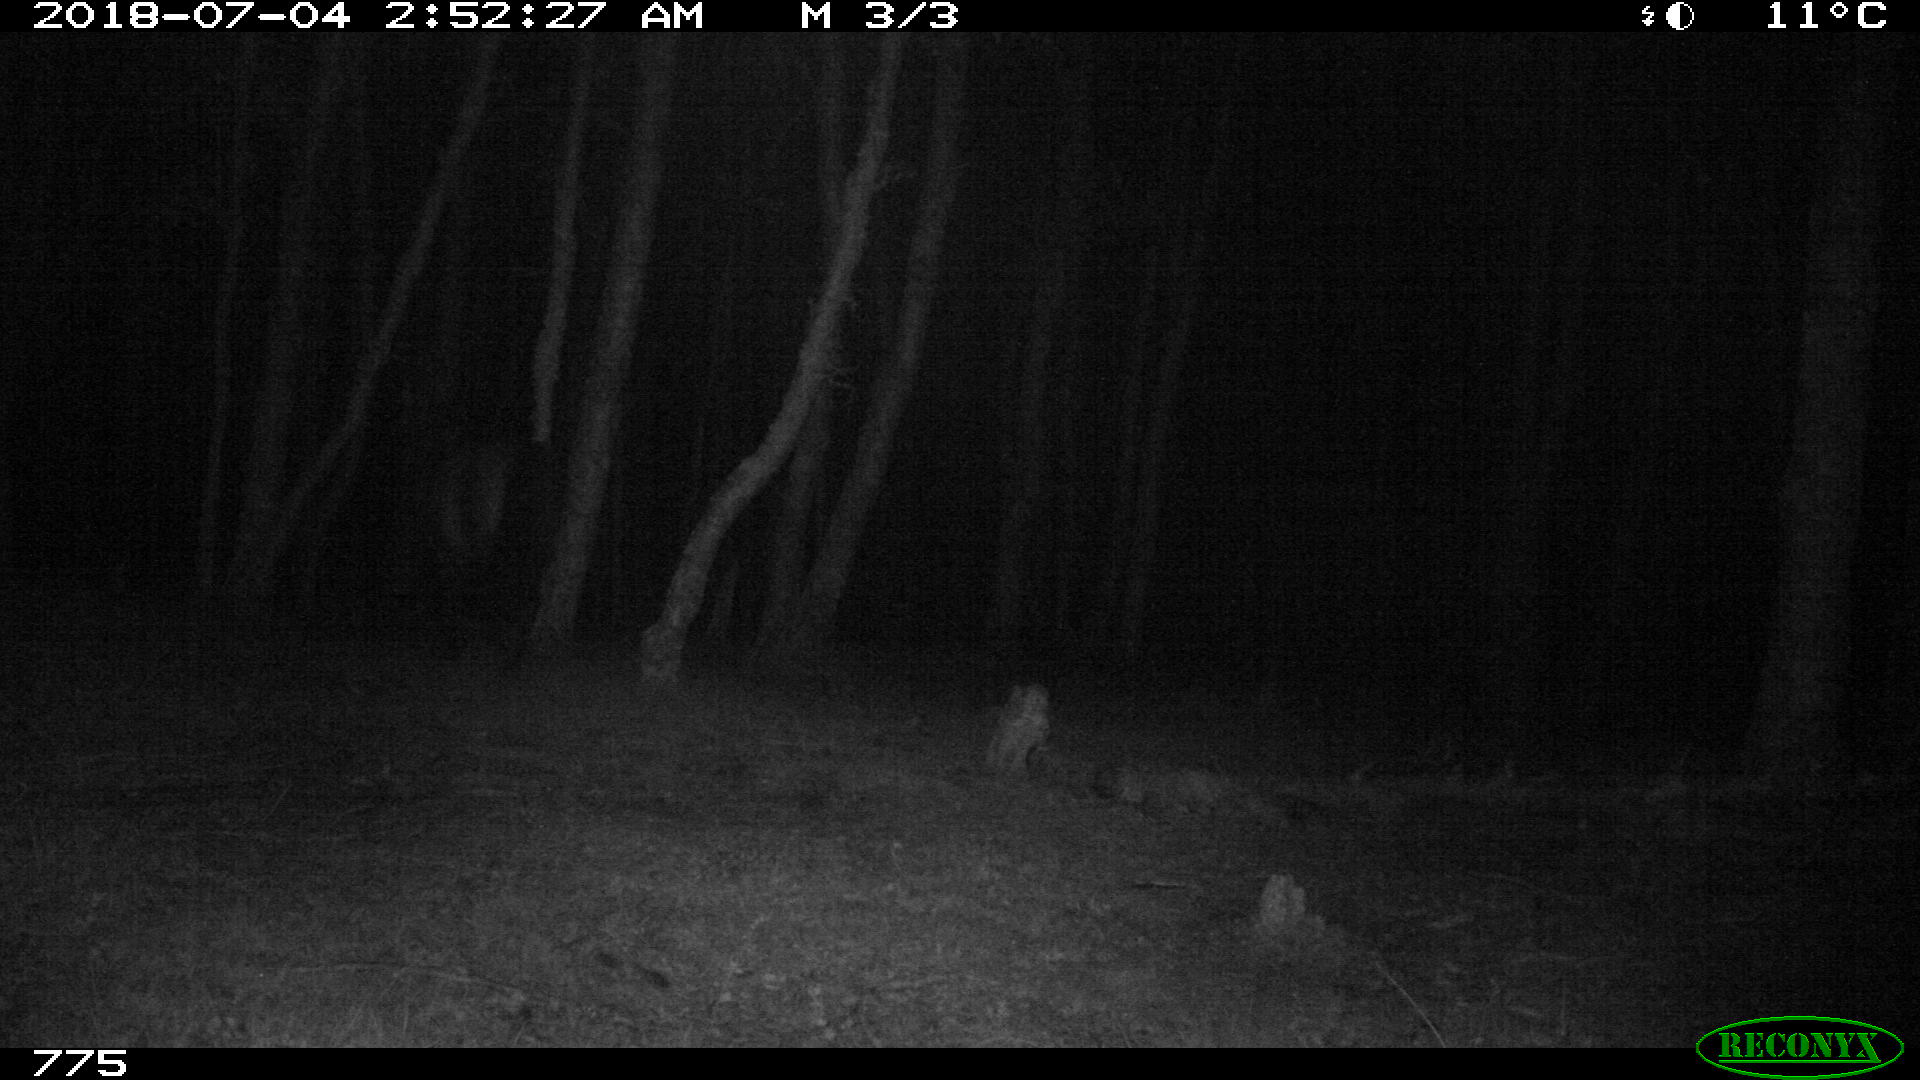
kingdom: Animalia
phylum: Chordata
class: Mammalia
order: Perissodactyla
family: Equidae
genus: Equus
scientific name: Equus caballus
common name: Horse
